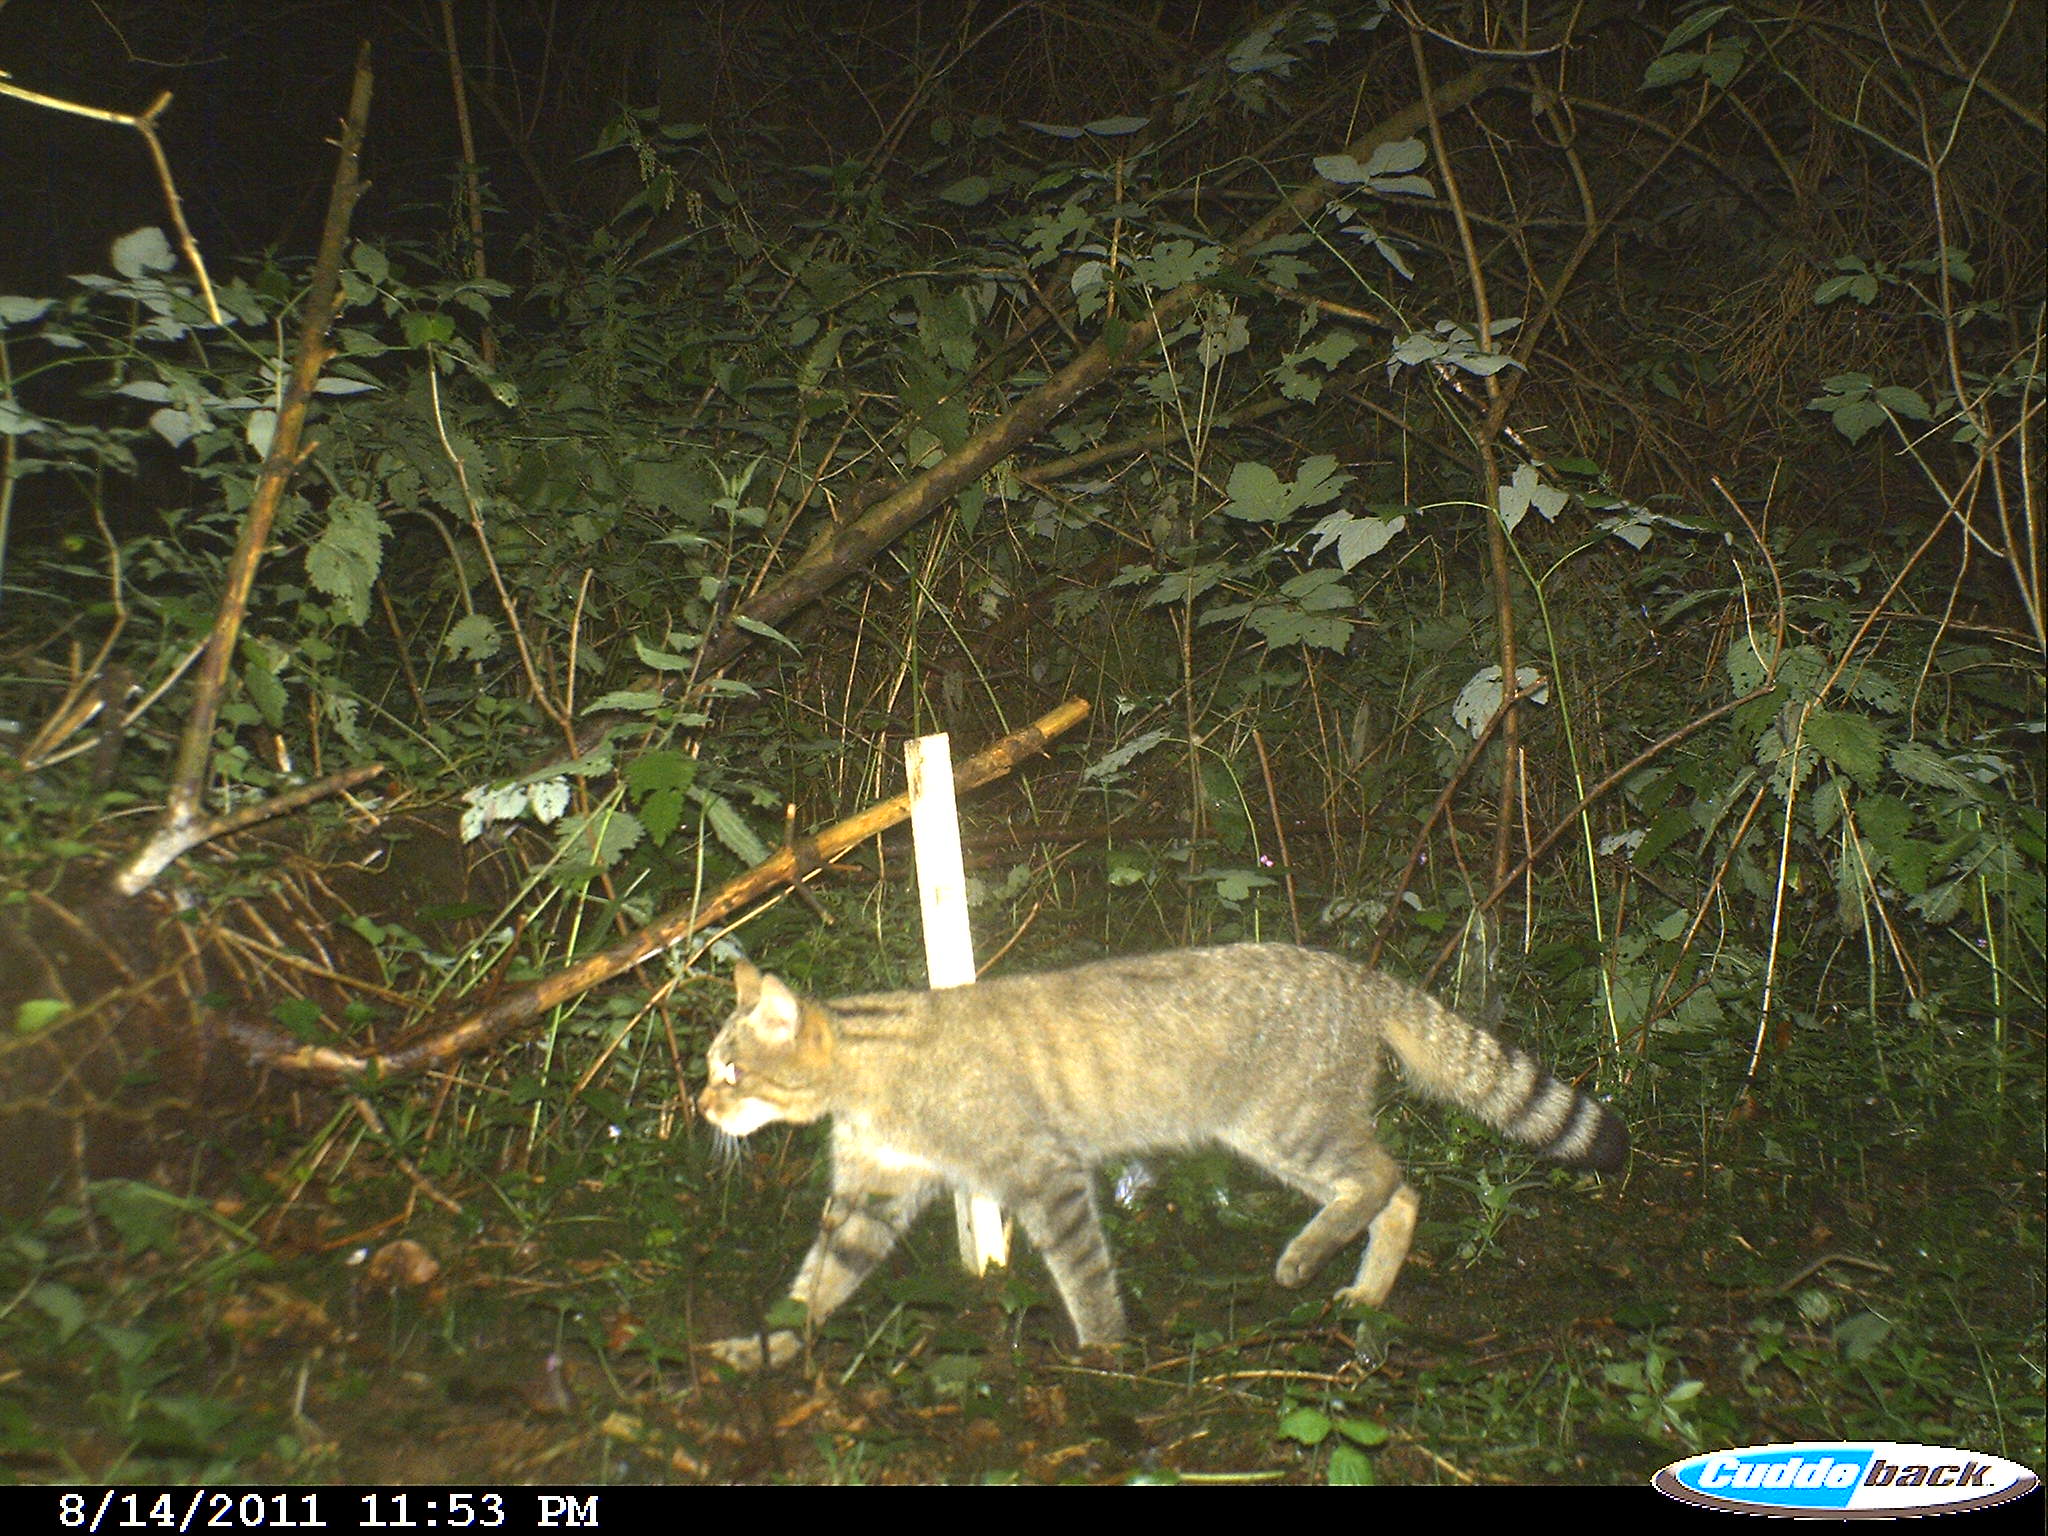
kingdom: Animalia
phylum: Chordata
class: Mammalia
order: Carnivora
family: Felidae
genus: Felis
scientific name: Felis silvestris
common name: Wildcat
